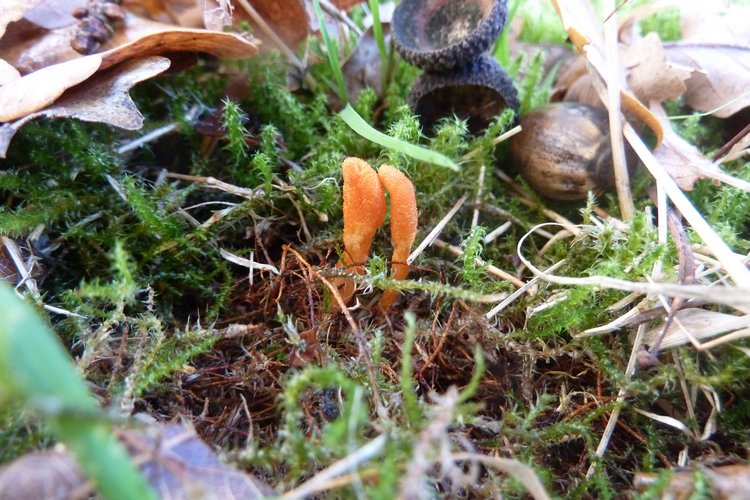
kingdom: Fungi
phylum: Ascomycota
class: Sordariomycetes
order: Hypocreales
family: Cordycipitaceae
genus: Cordyceps
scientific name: Cordyceps militaris
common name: puppe-snyltekølle
